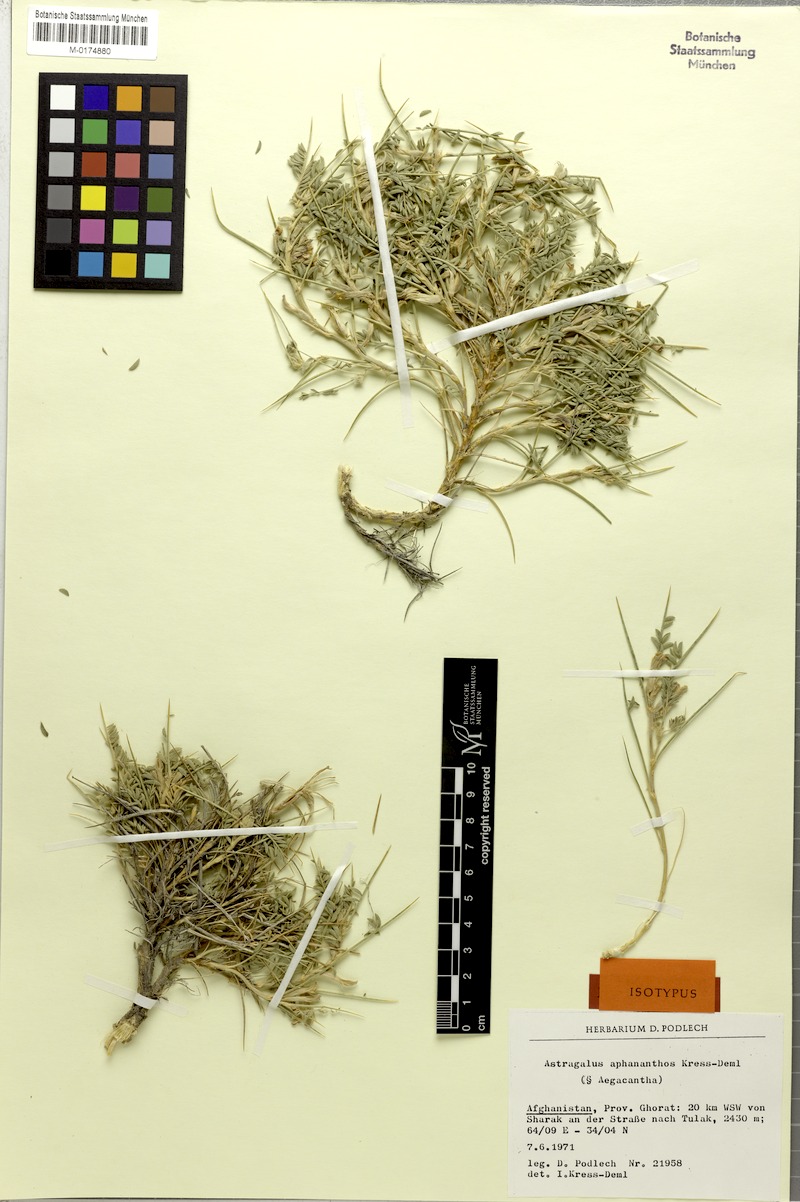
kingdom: Plantae
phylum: Tracheophyta
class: Magnoliopsida
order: Fabales
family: Fabaceae
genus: Astragalus
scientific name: Astragalus sharestanicus
